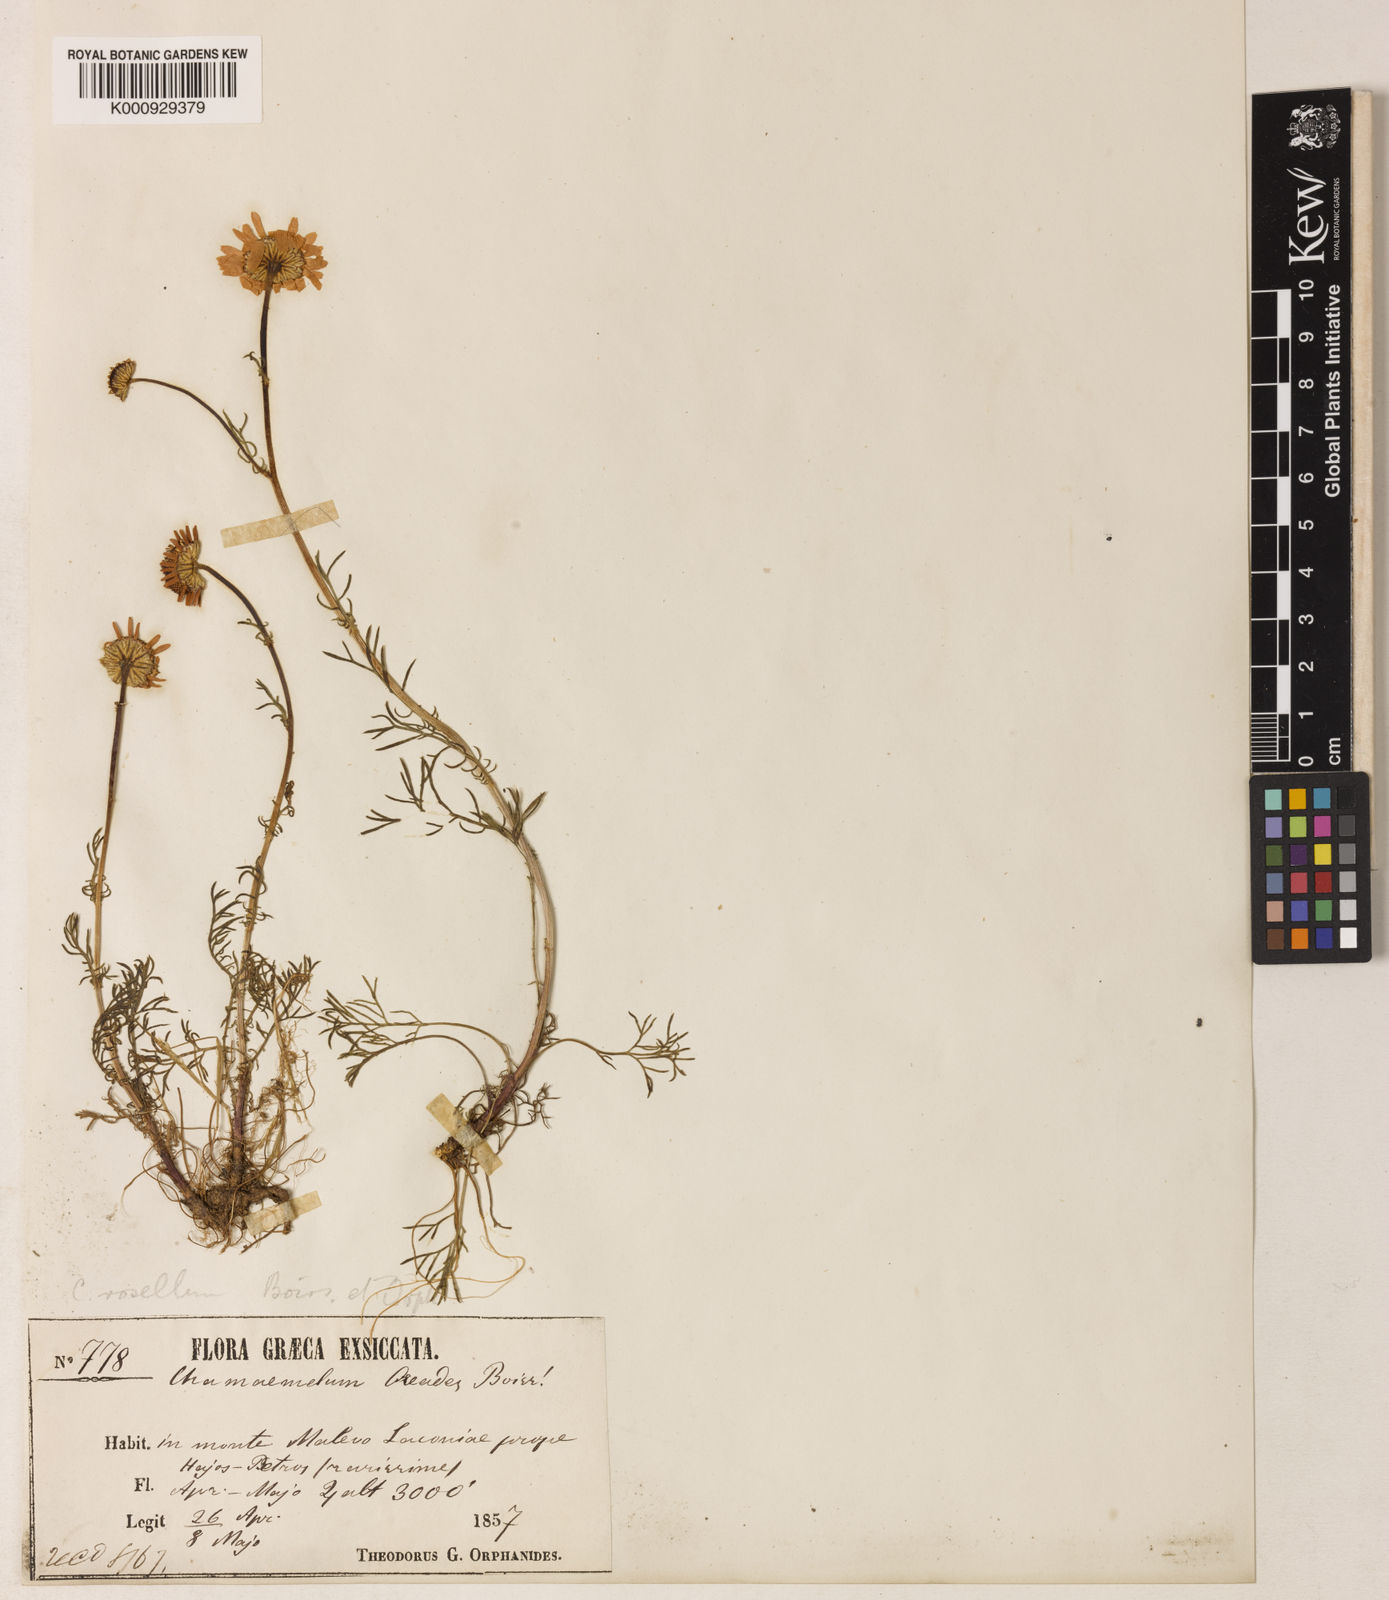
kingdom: Plantae
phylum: Tracheophyta
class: Magnoliopsida
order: Asterales
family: Asteraceae
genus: Tripleurospermum
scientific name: Tripleurospermum rosellum
